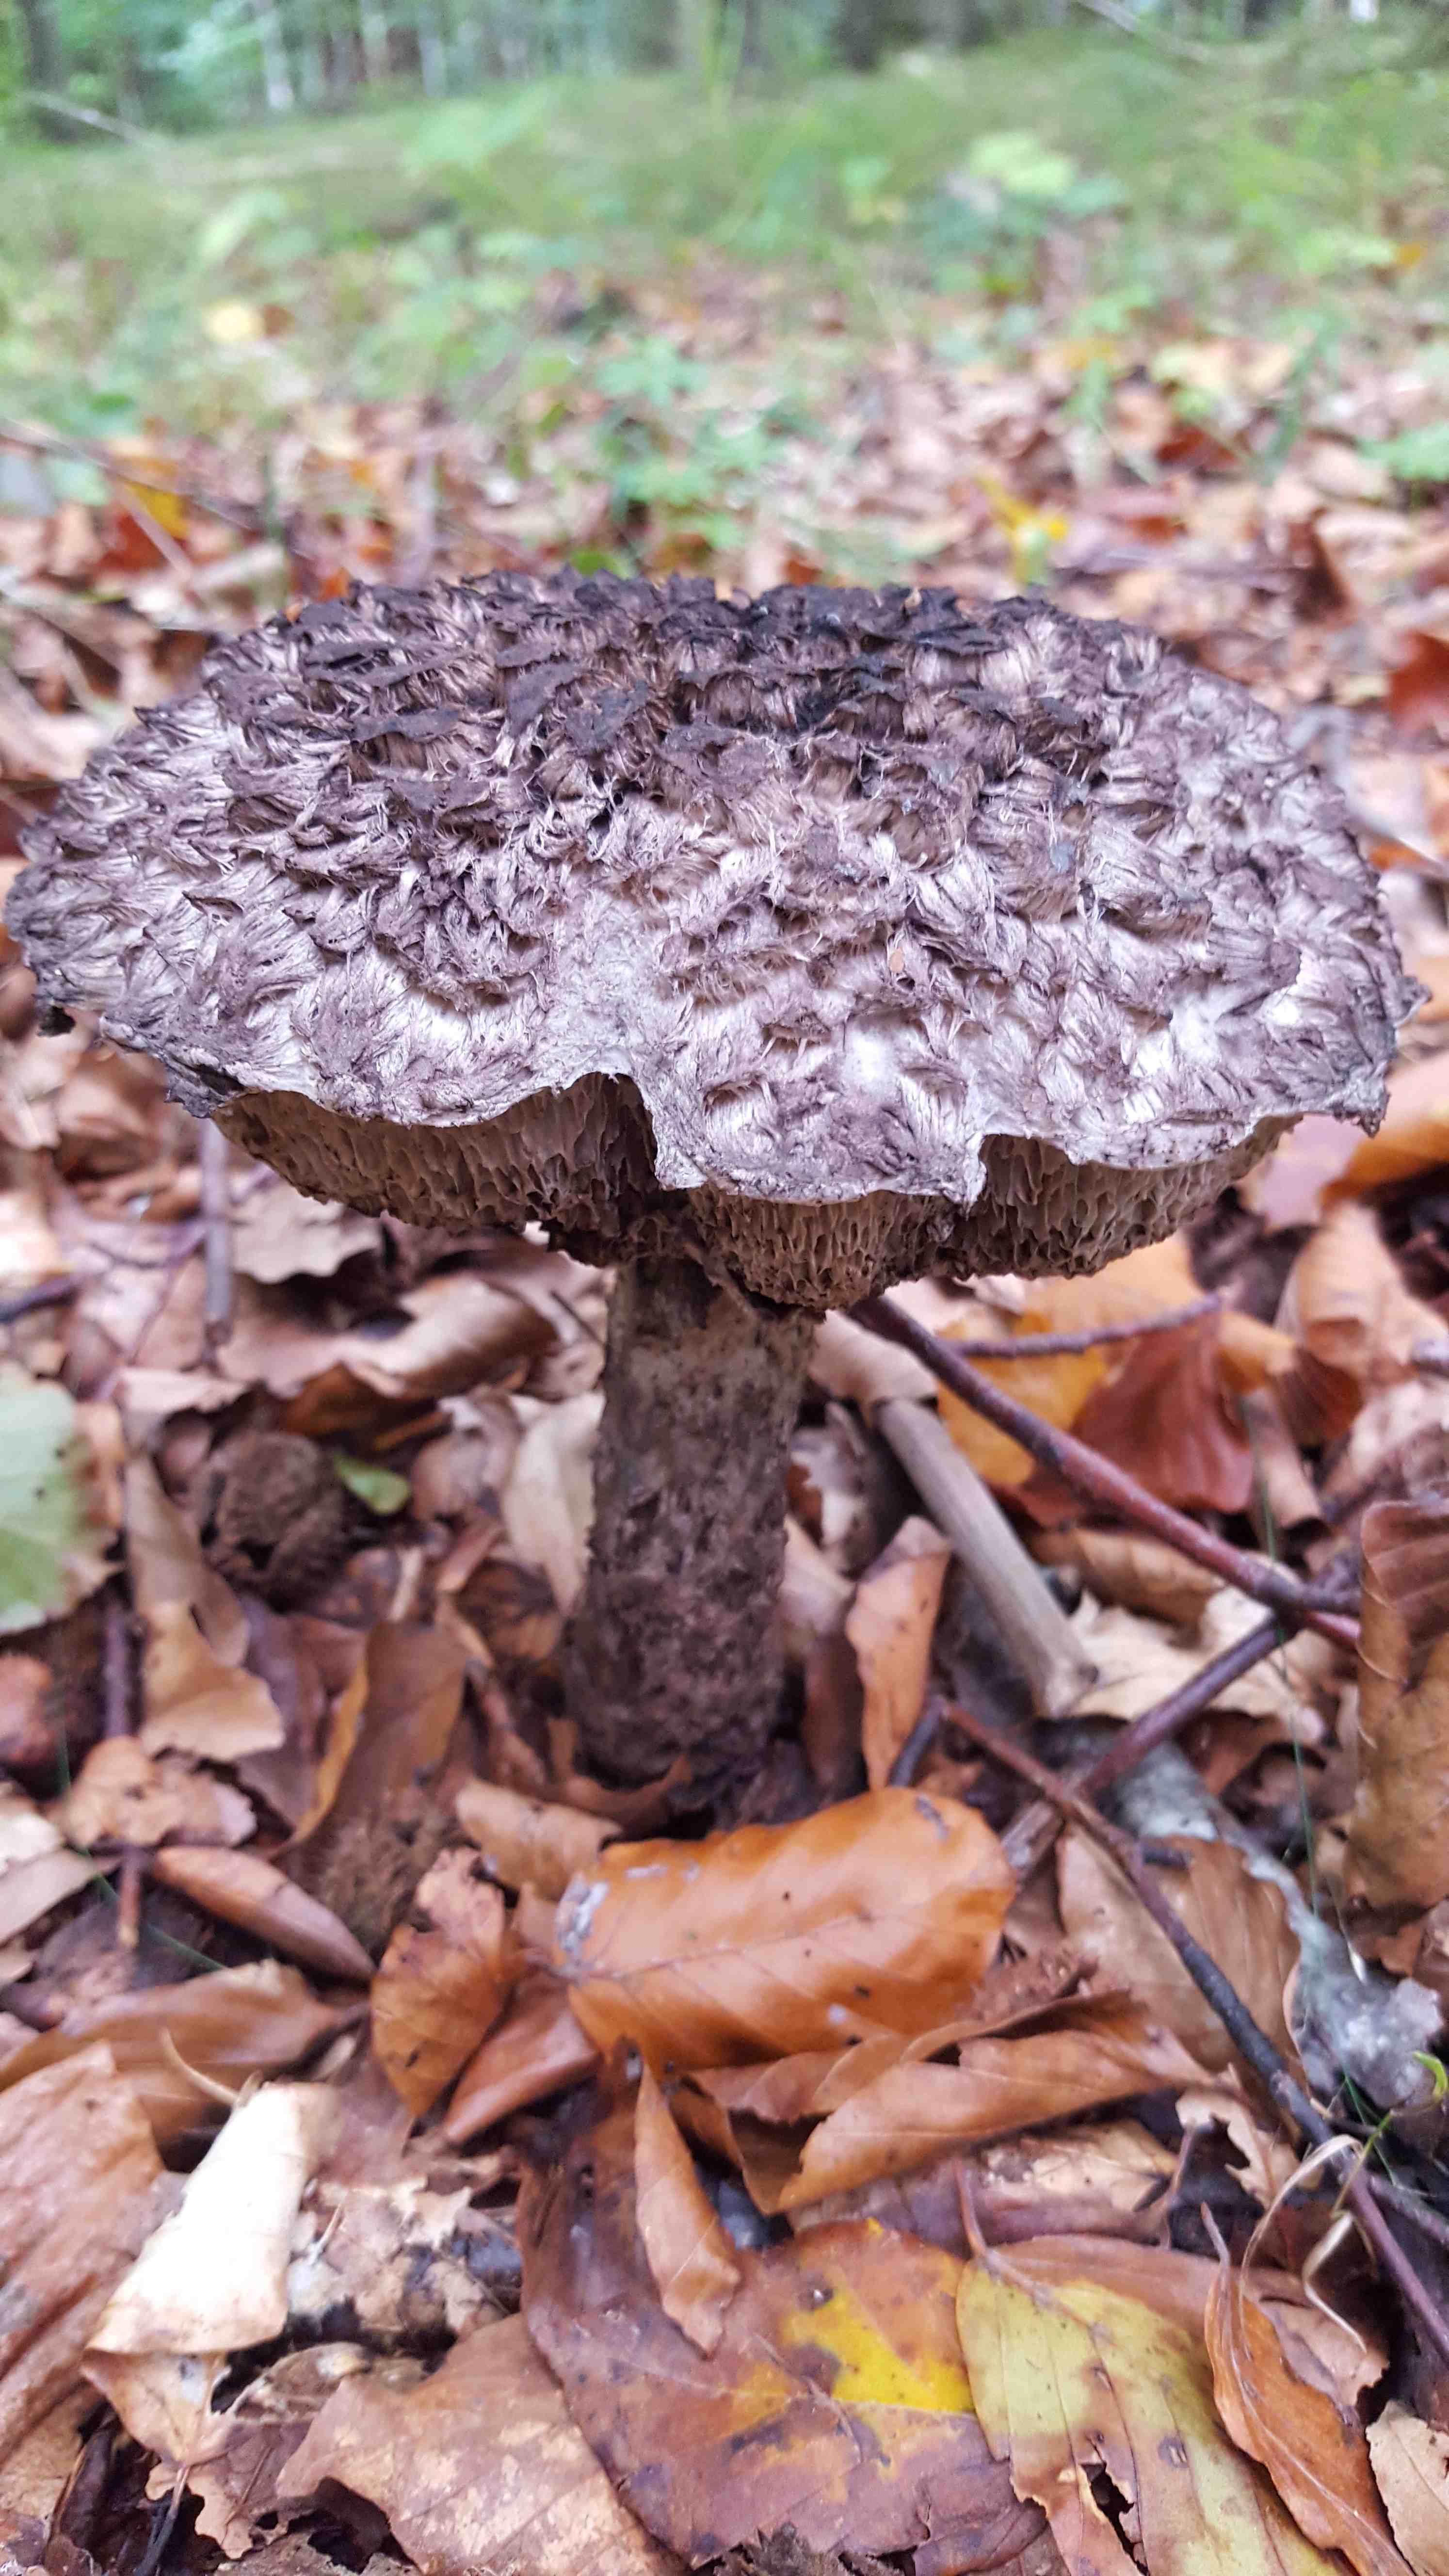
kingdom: Fungi
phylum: Basidiomycota
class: Agaricomycetes
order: Boletales
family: Boletaceae
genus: Strobilomyces
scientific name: Strobilomyces strobilaceus
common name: koglerørhat
